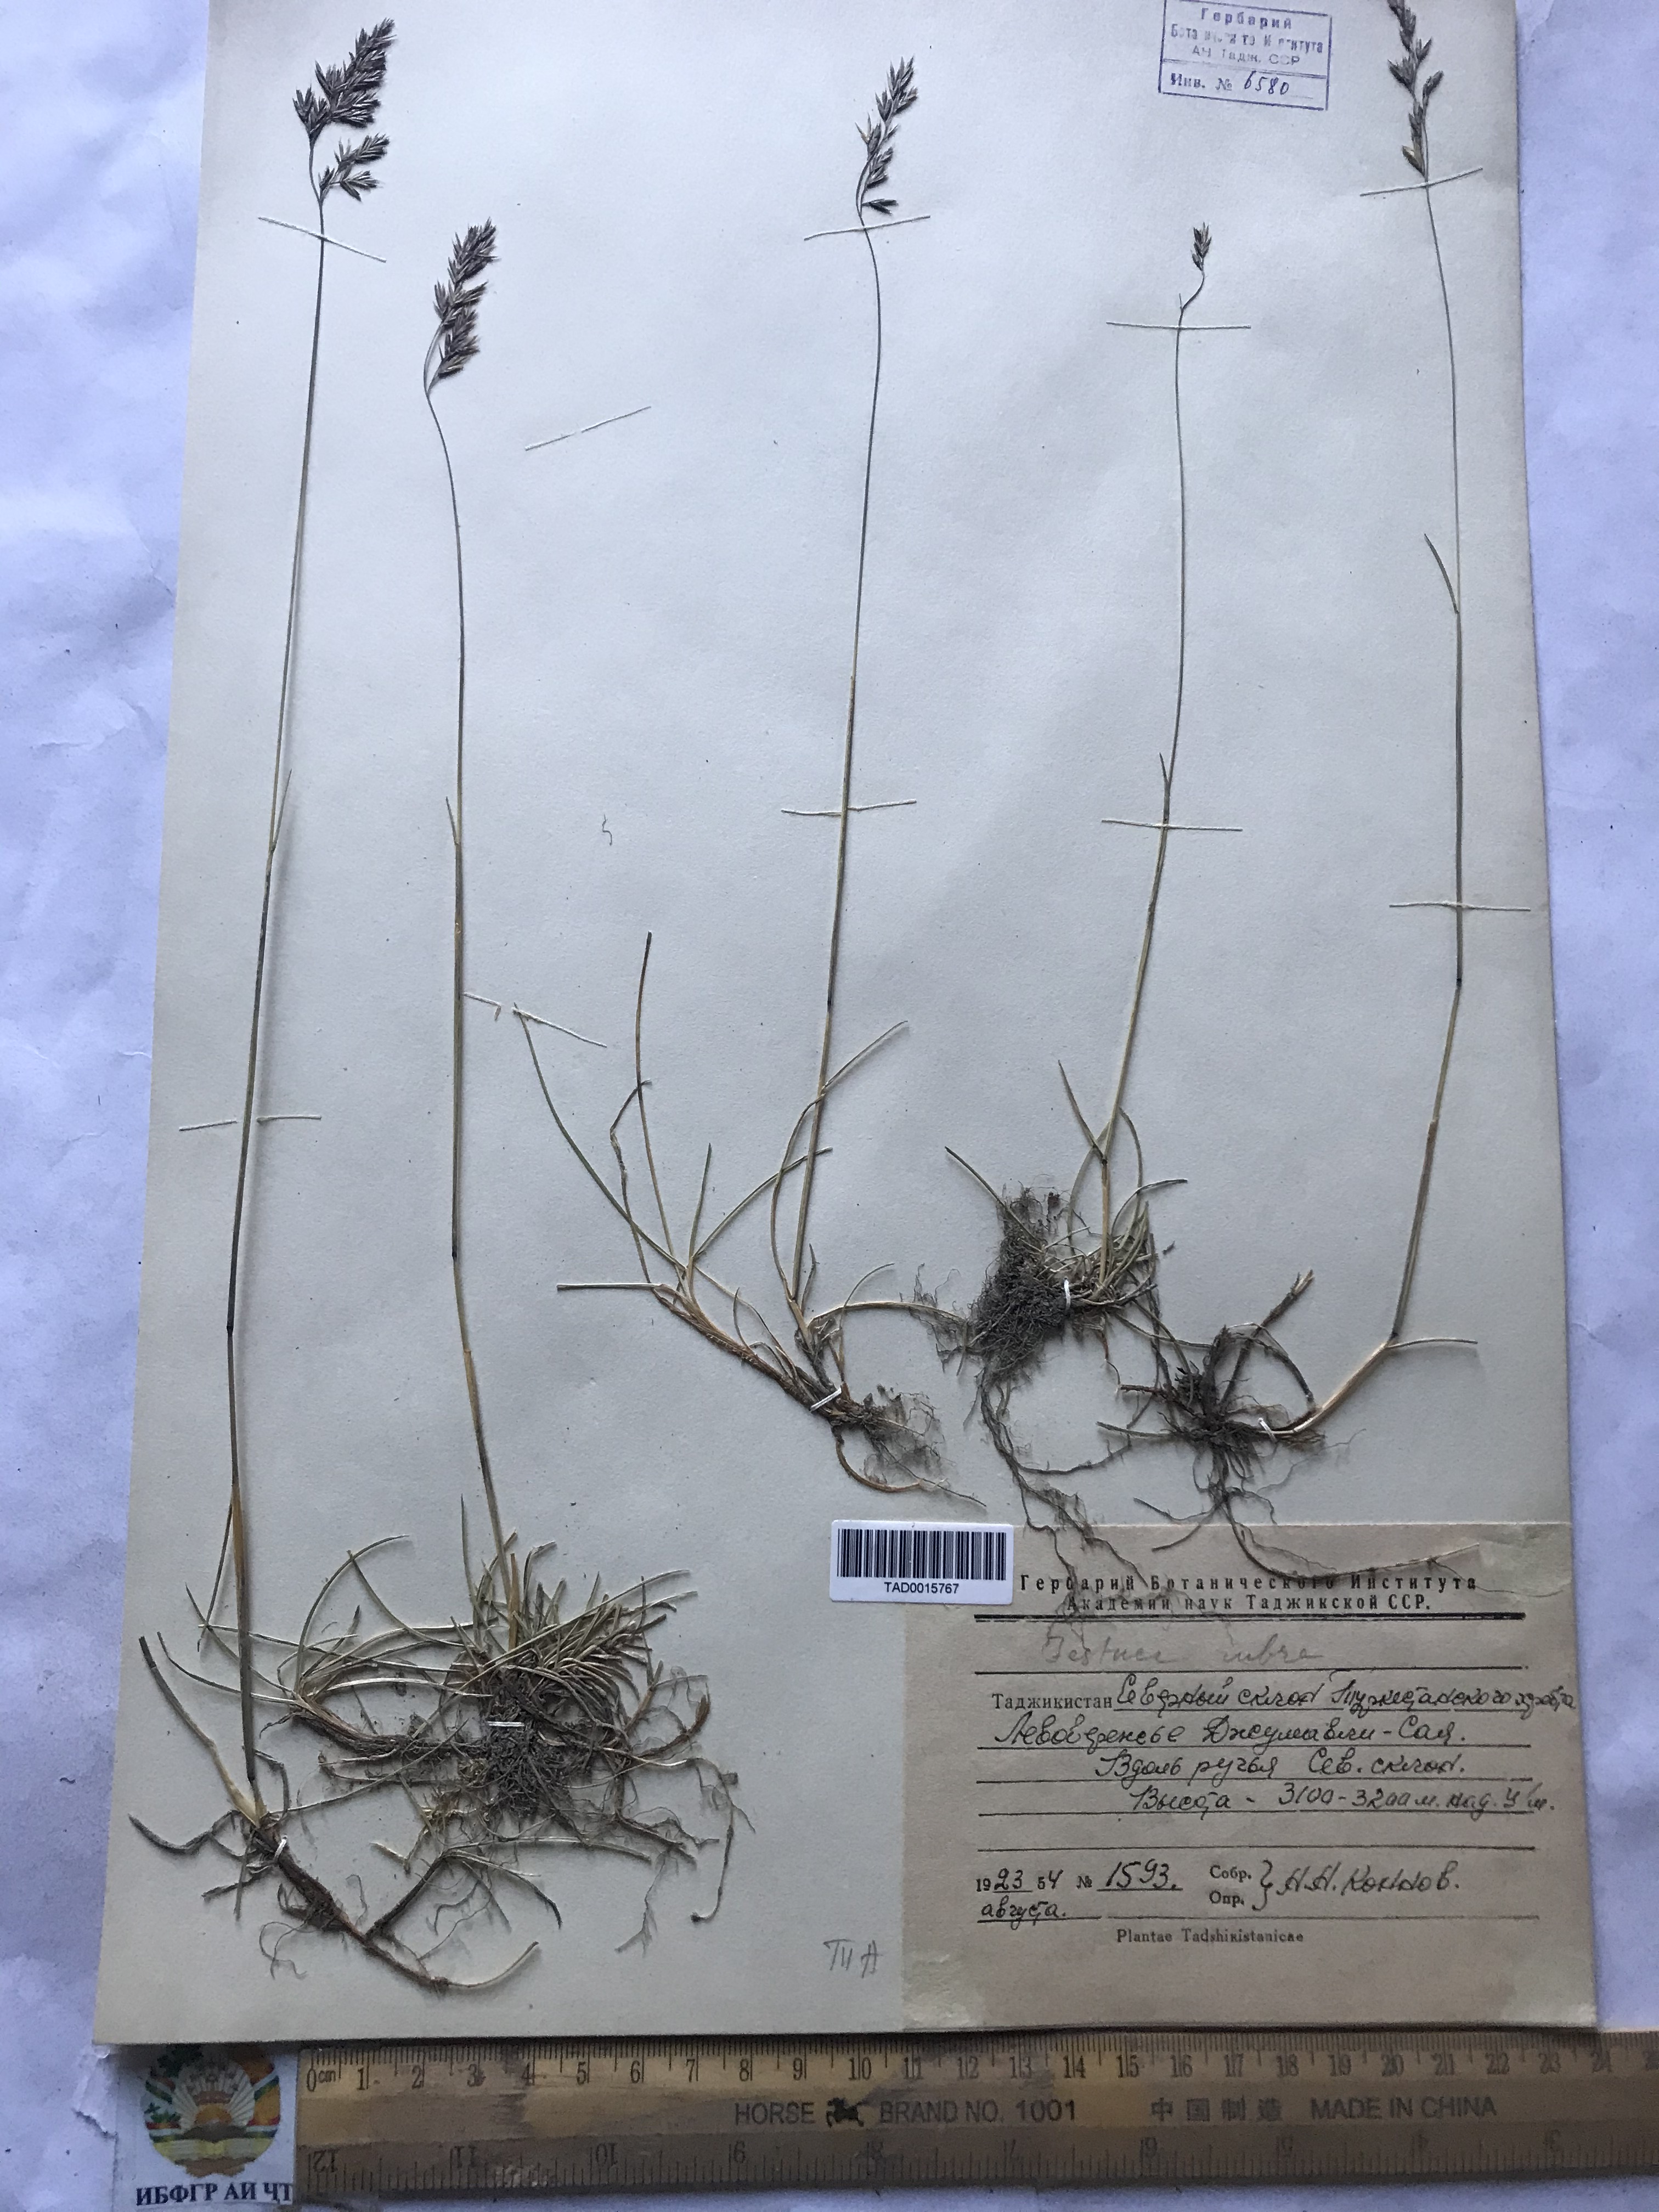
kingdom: Plantae
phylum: Tracheophyta
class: Liliopsida
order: Poales
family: Poaceae
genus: Festuca
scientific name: Festuca rubra
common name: Red fescue
